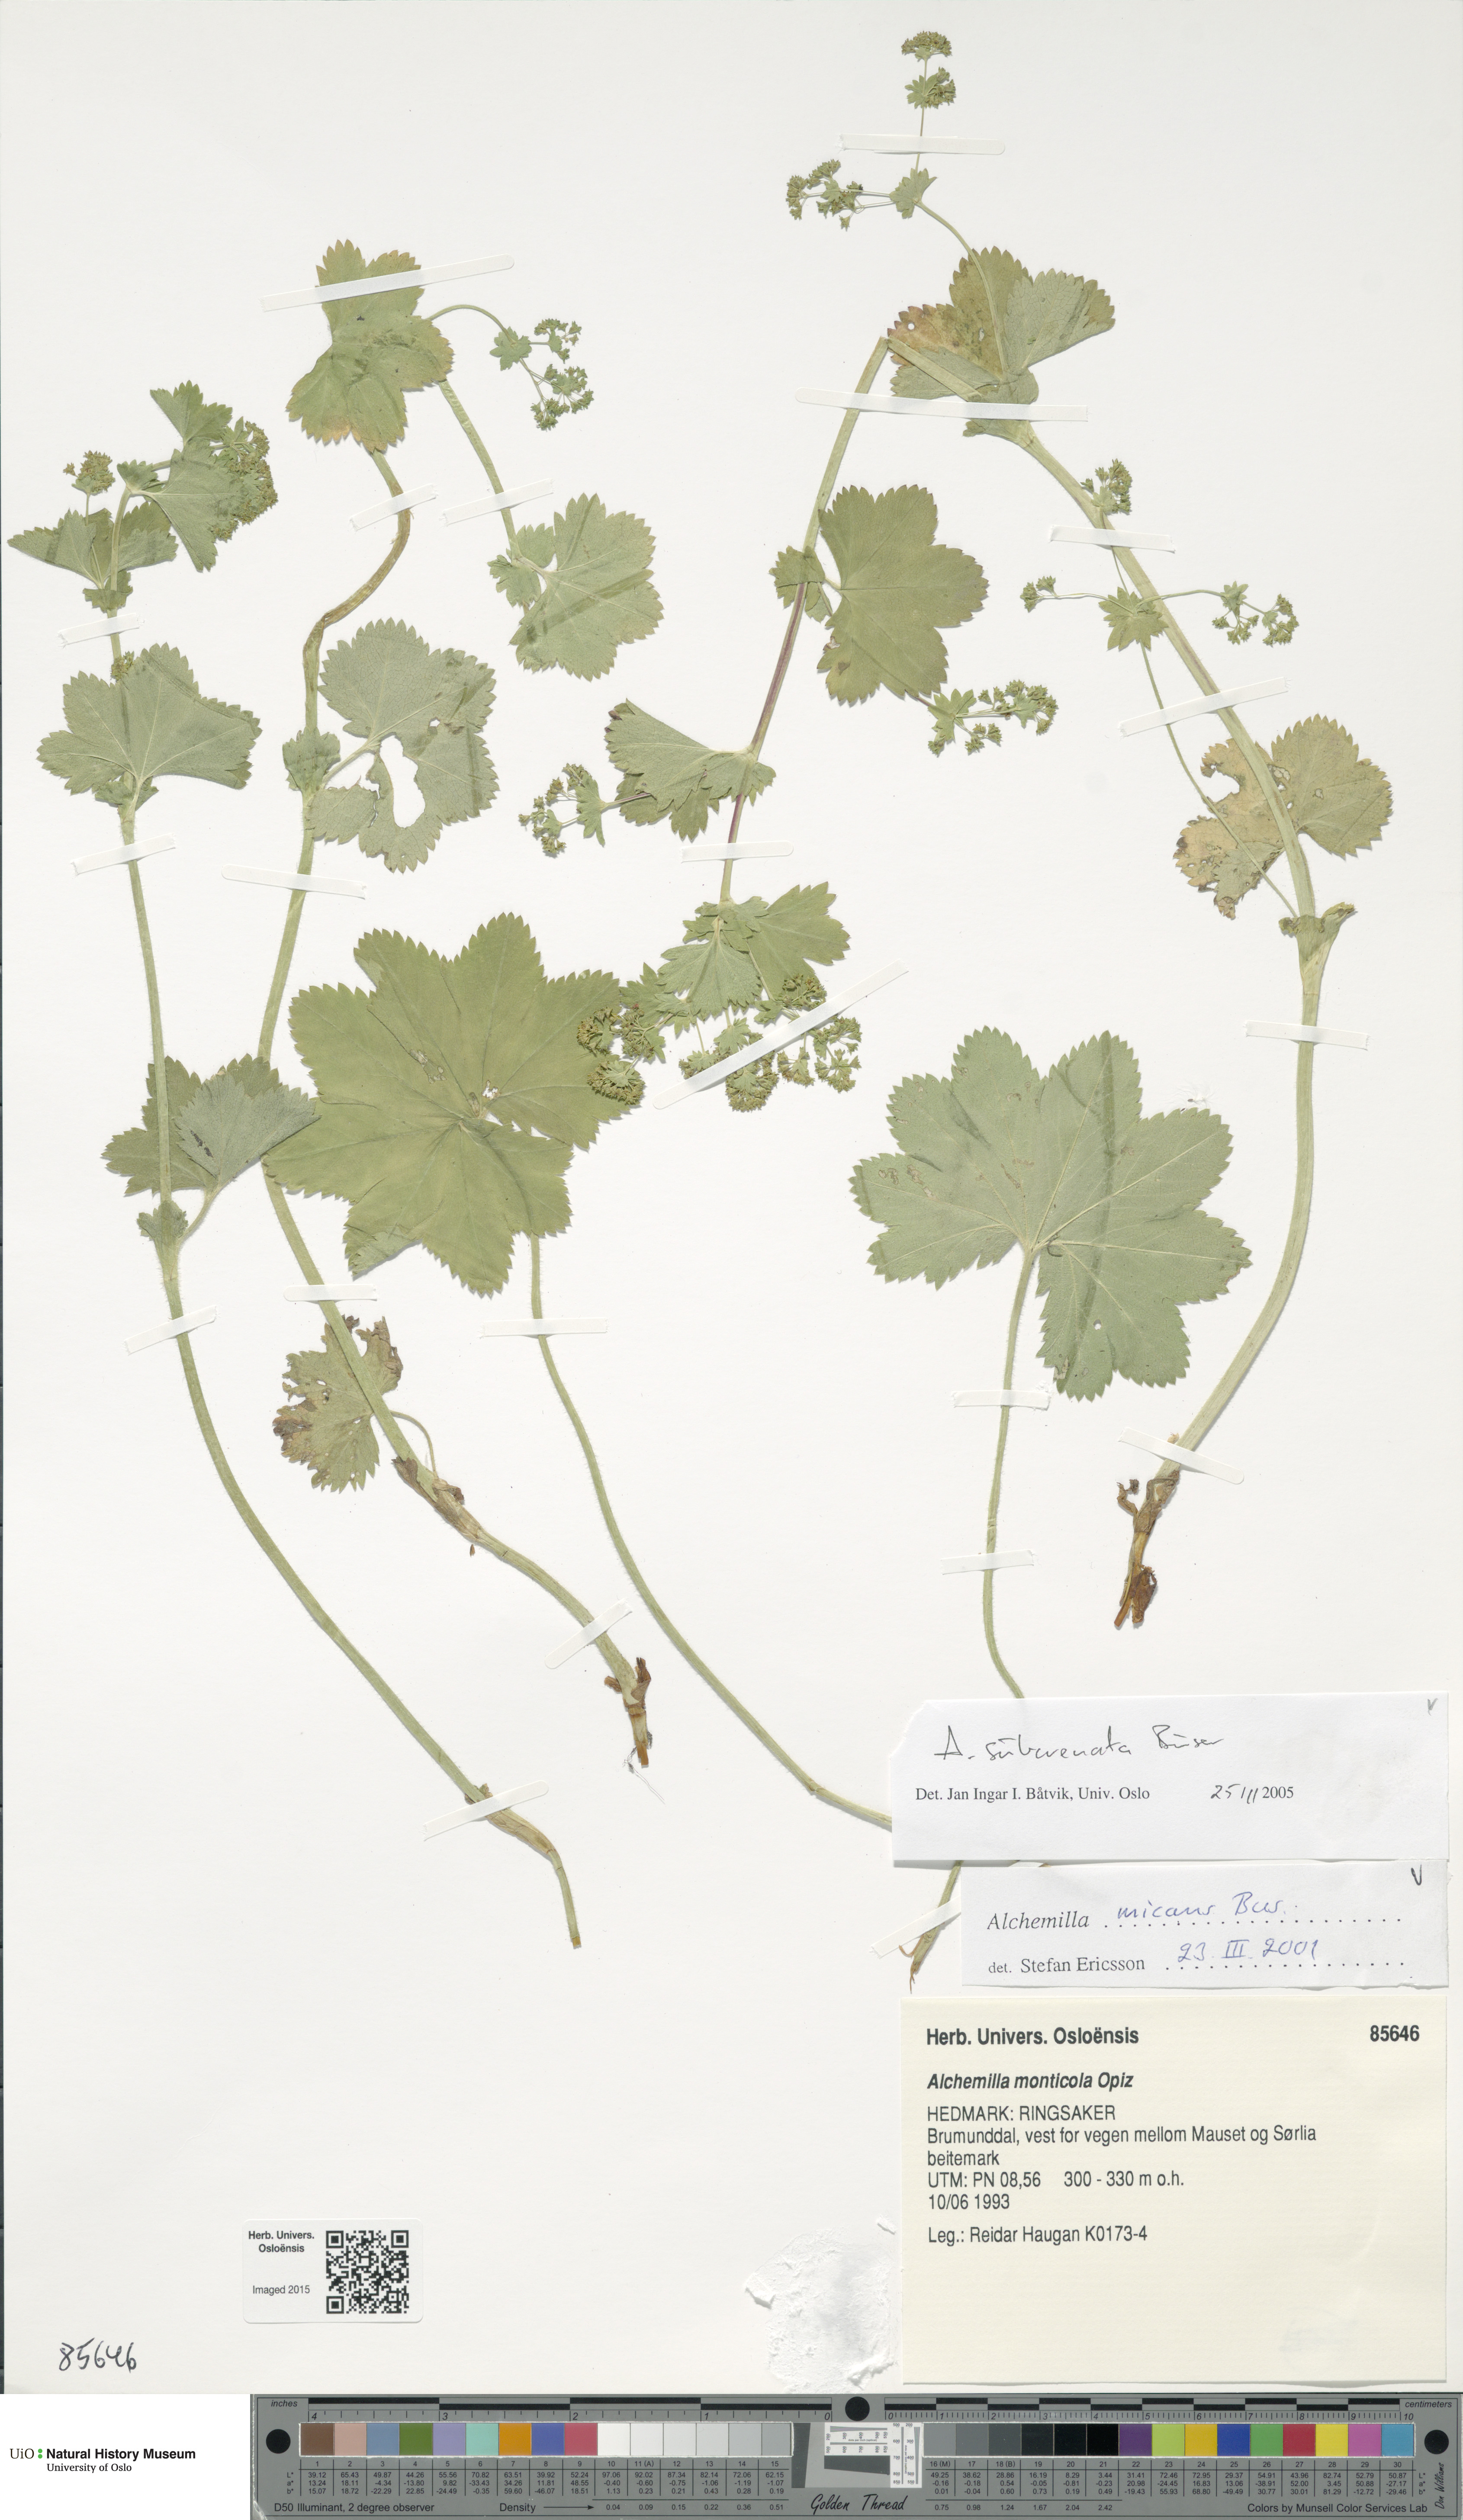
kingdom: Plantae
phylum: Tracheophyta
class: Magnoliopsida
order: Rosales
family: Rosaceae
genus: Alchemilla
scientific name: Alchemilla subcrenata
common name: Broadtooth lady's mantle
